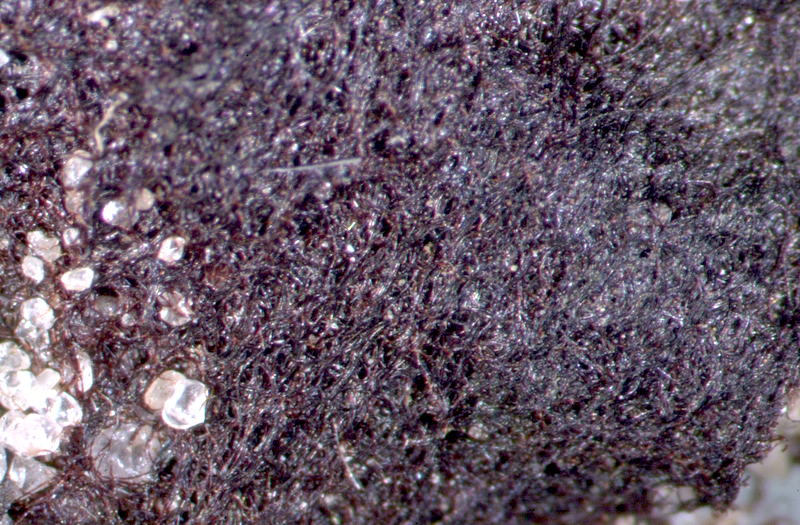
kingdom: Bacteria
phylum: Cyanobacteria
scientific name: Cyanobacteria
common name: Cyanobacteria
